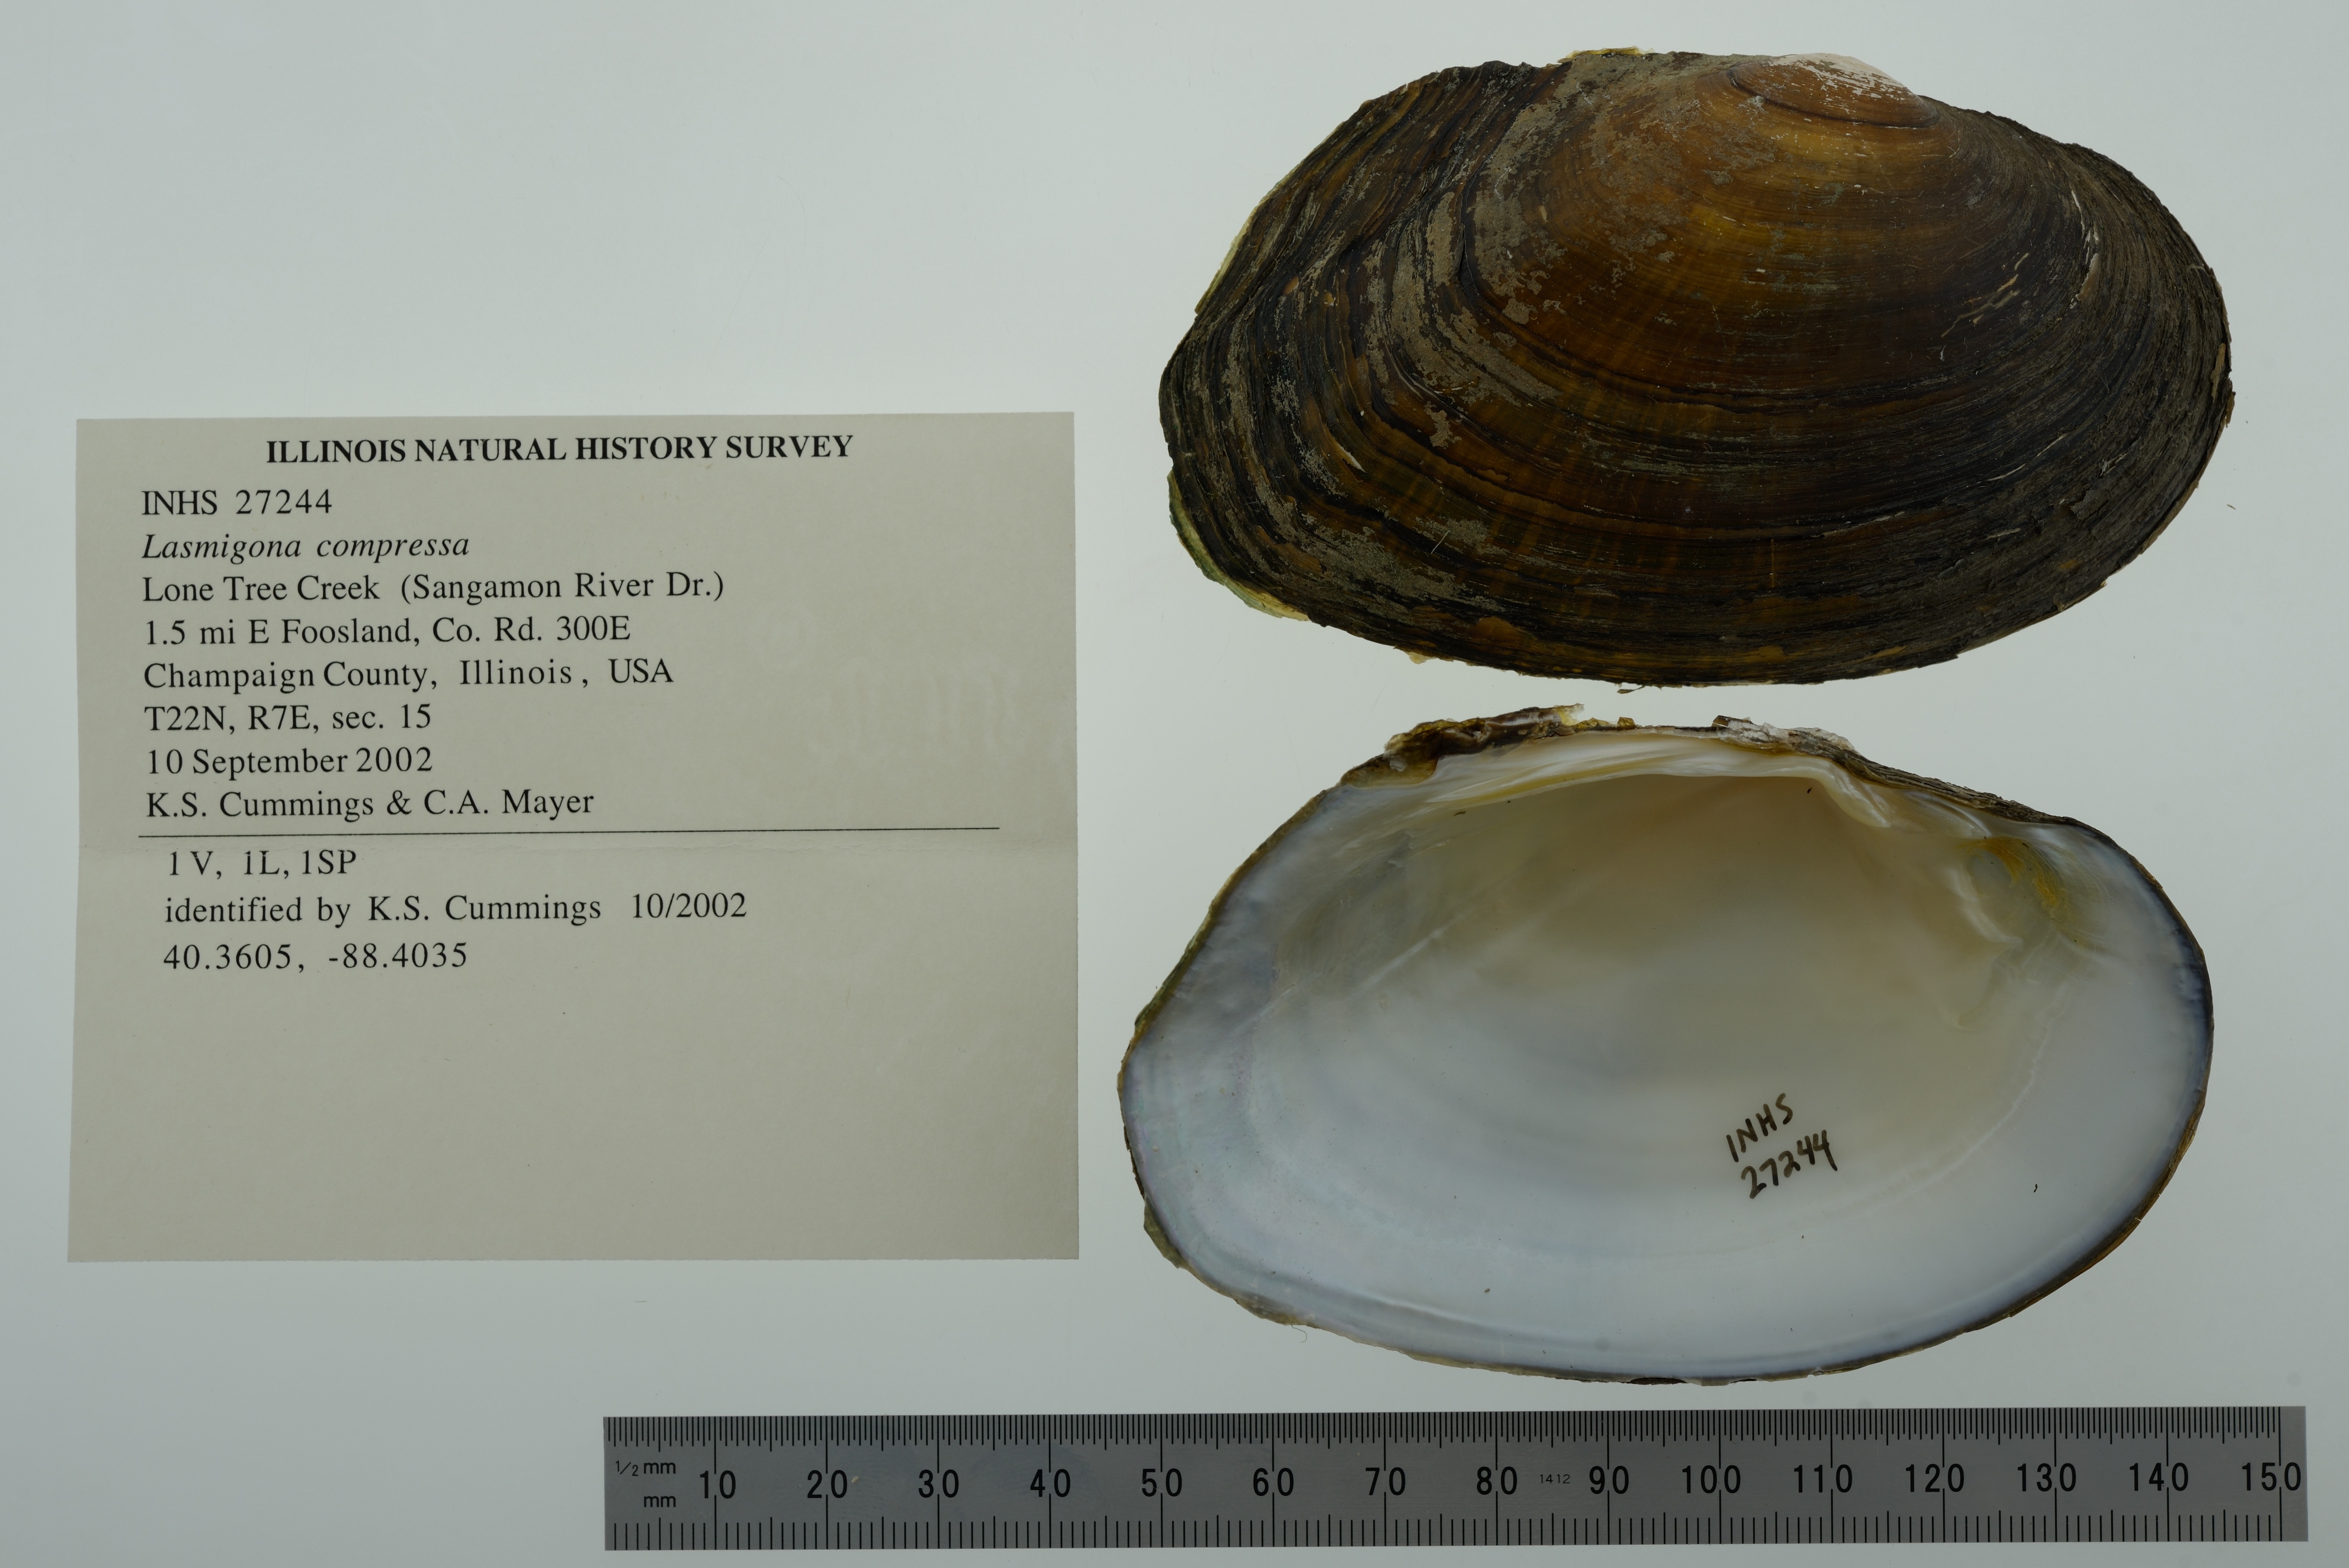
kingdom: Animalia
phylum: Mollusca
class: Bivalvia
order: Unionida
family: Unionidae
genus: Lasmigona
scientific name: Lasmigona compressa
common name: Creek heelsplitter
